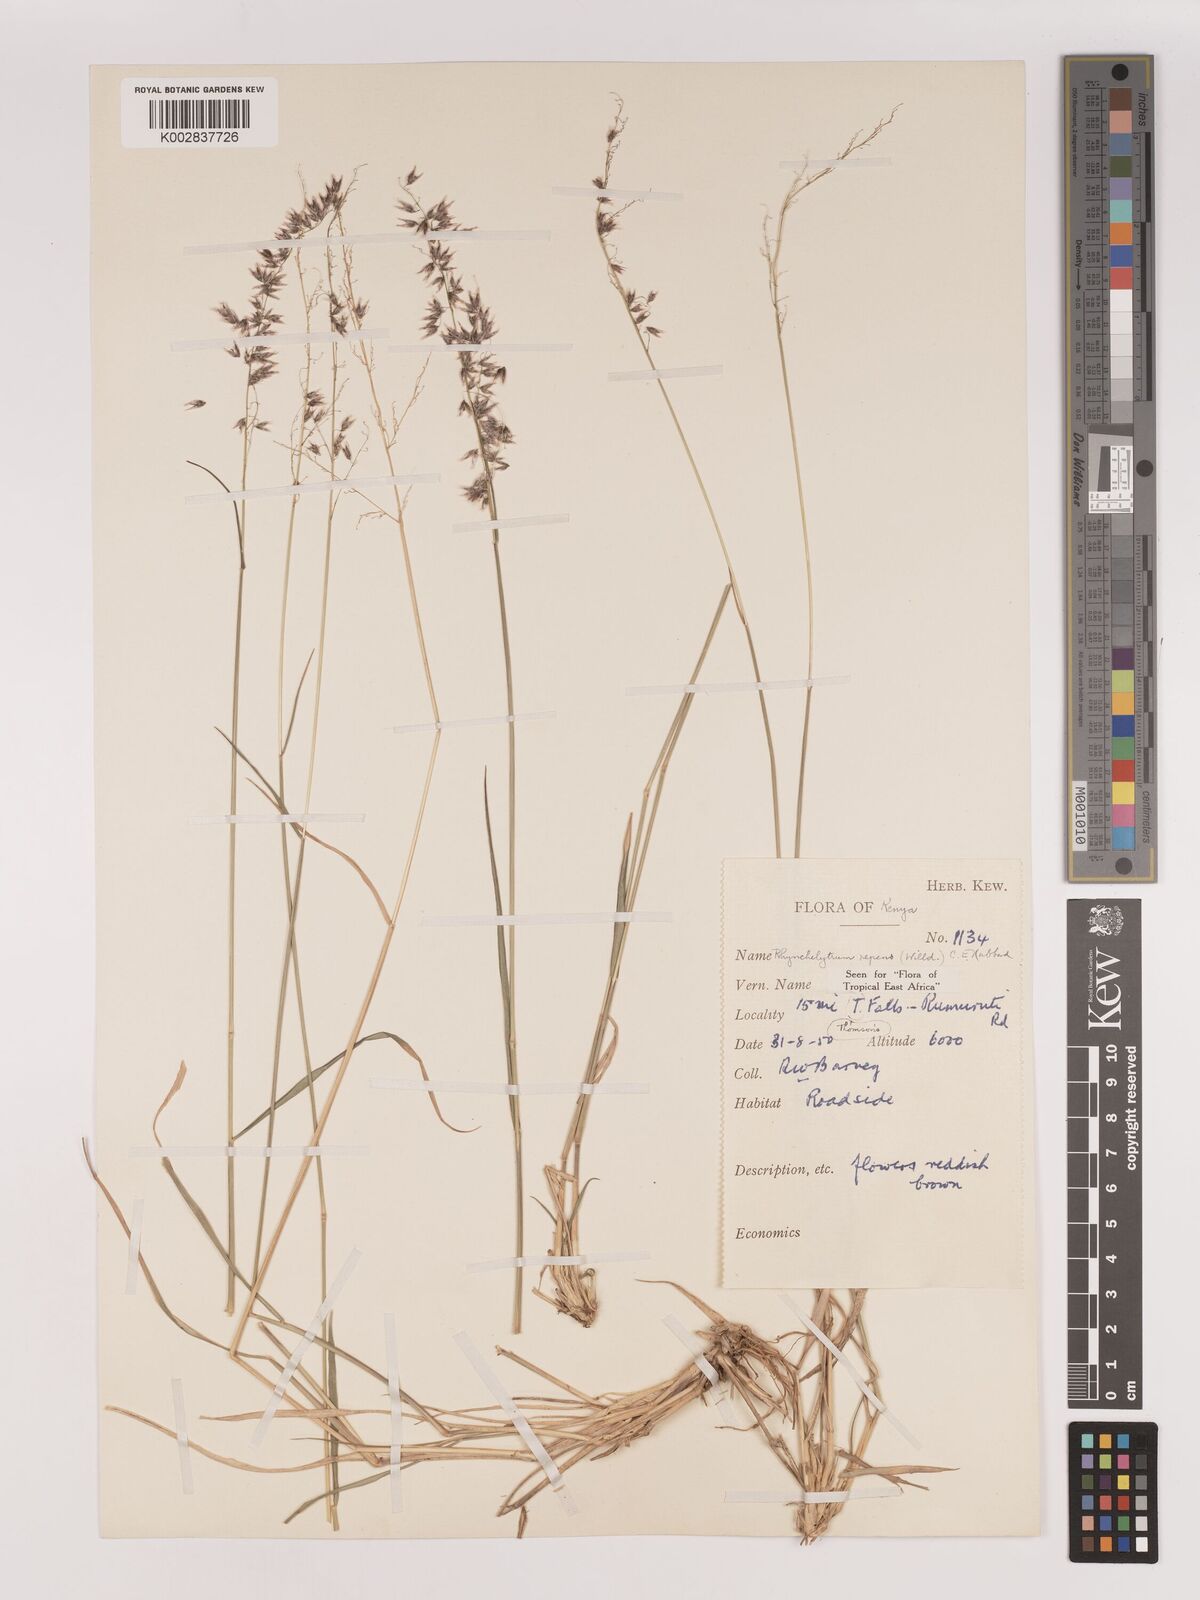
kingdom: Plantae
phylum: Tracheophyta
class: Liliopsida
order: Poales
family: Poaceae
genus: Melinis
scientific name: Melinis repens
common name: Rose natal grass
